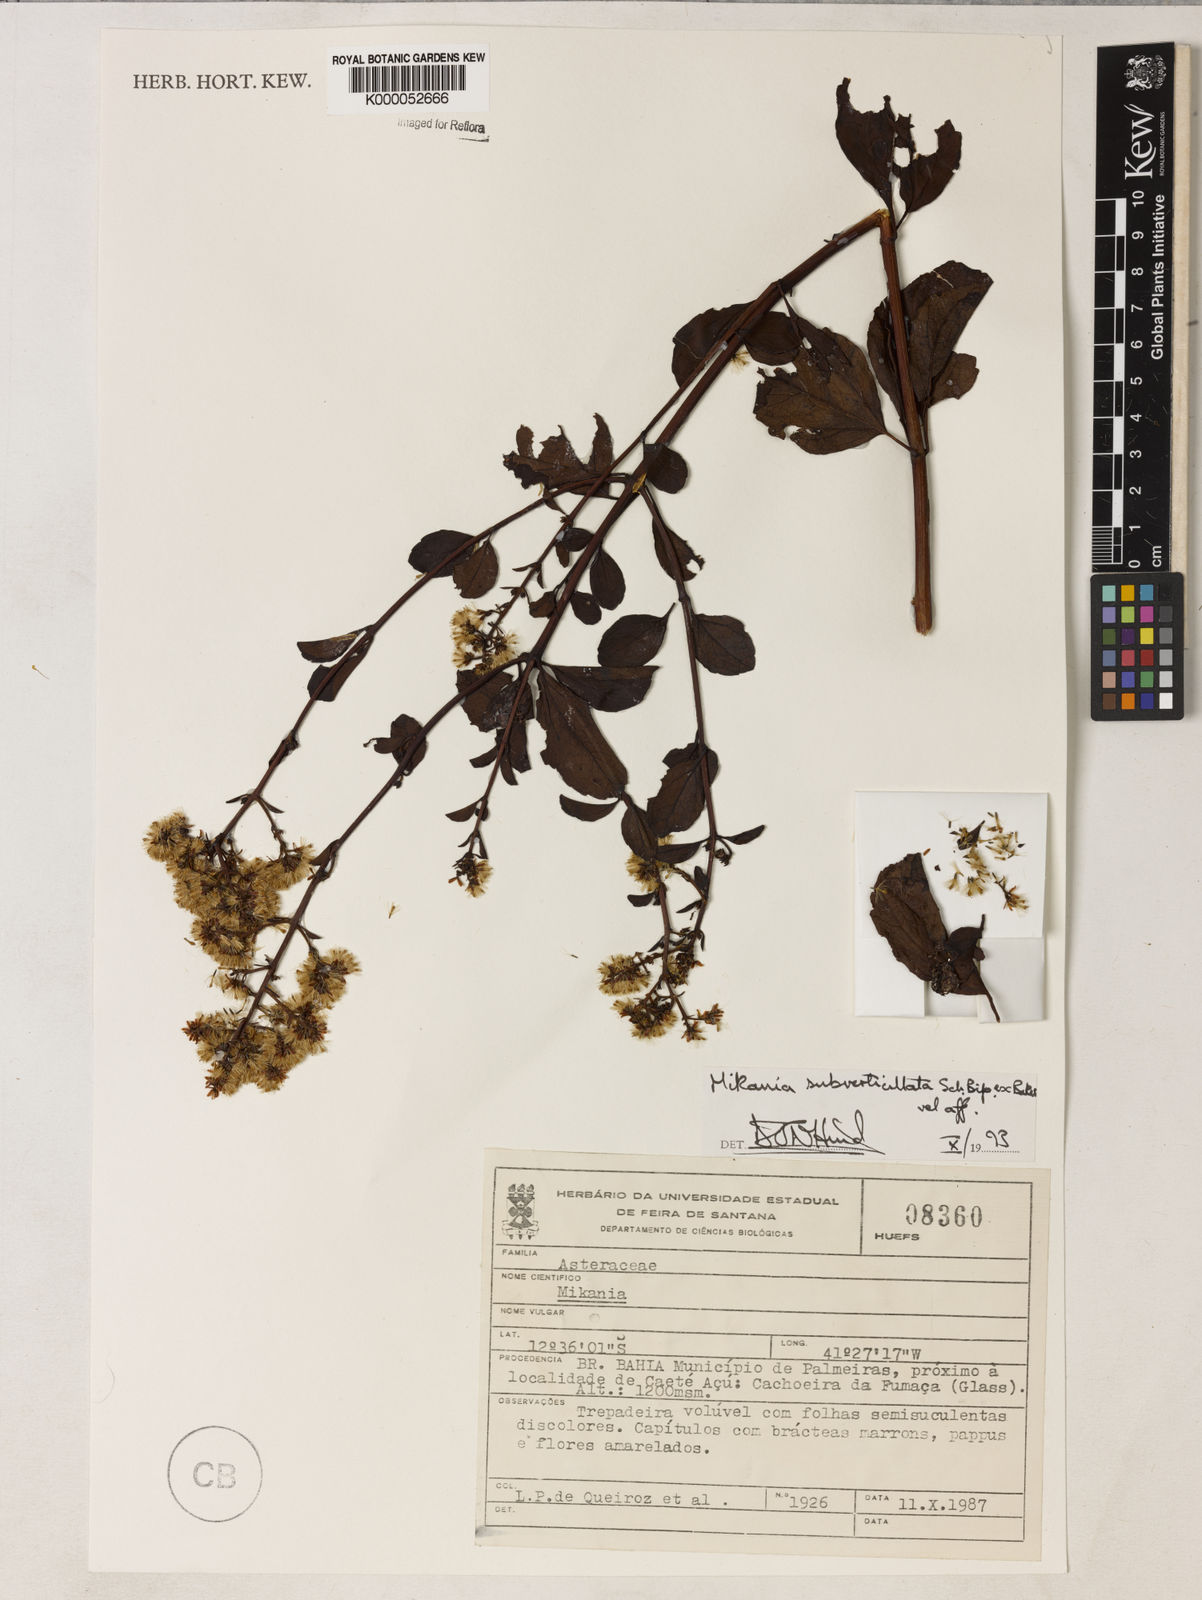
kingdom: Plantae
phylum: Tracheophyta
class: Magnoliopsida
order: Asterales
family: Asteraceae
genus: Mikania
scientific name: Mikania subverticillata
